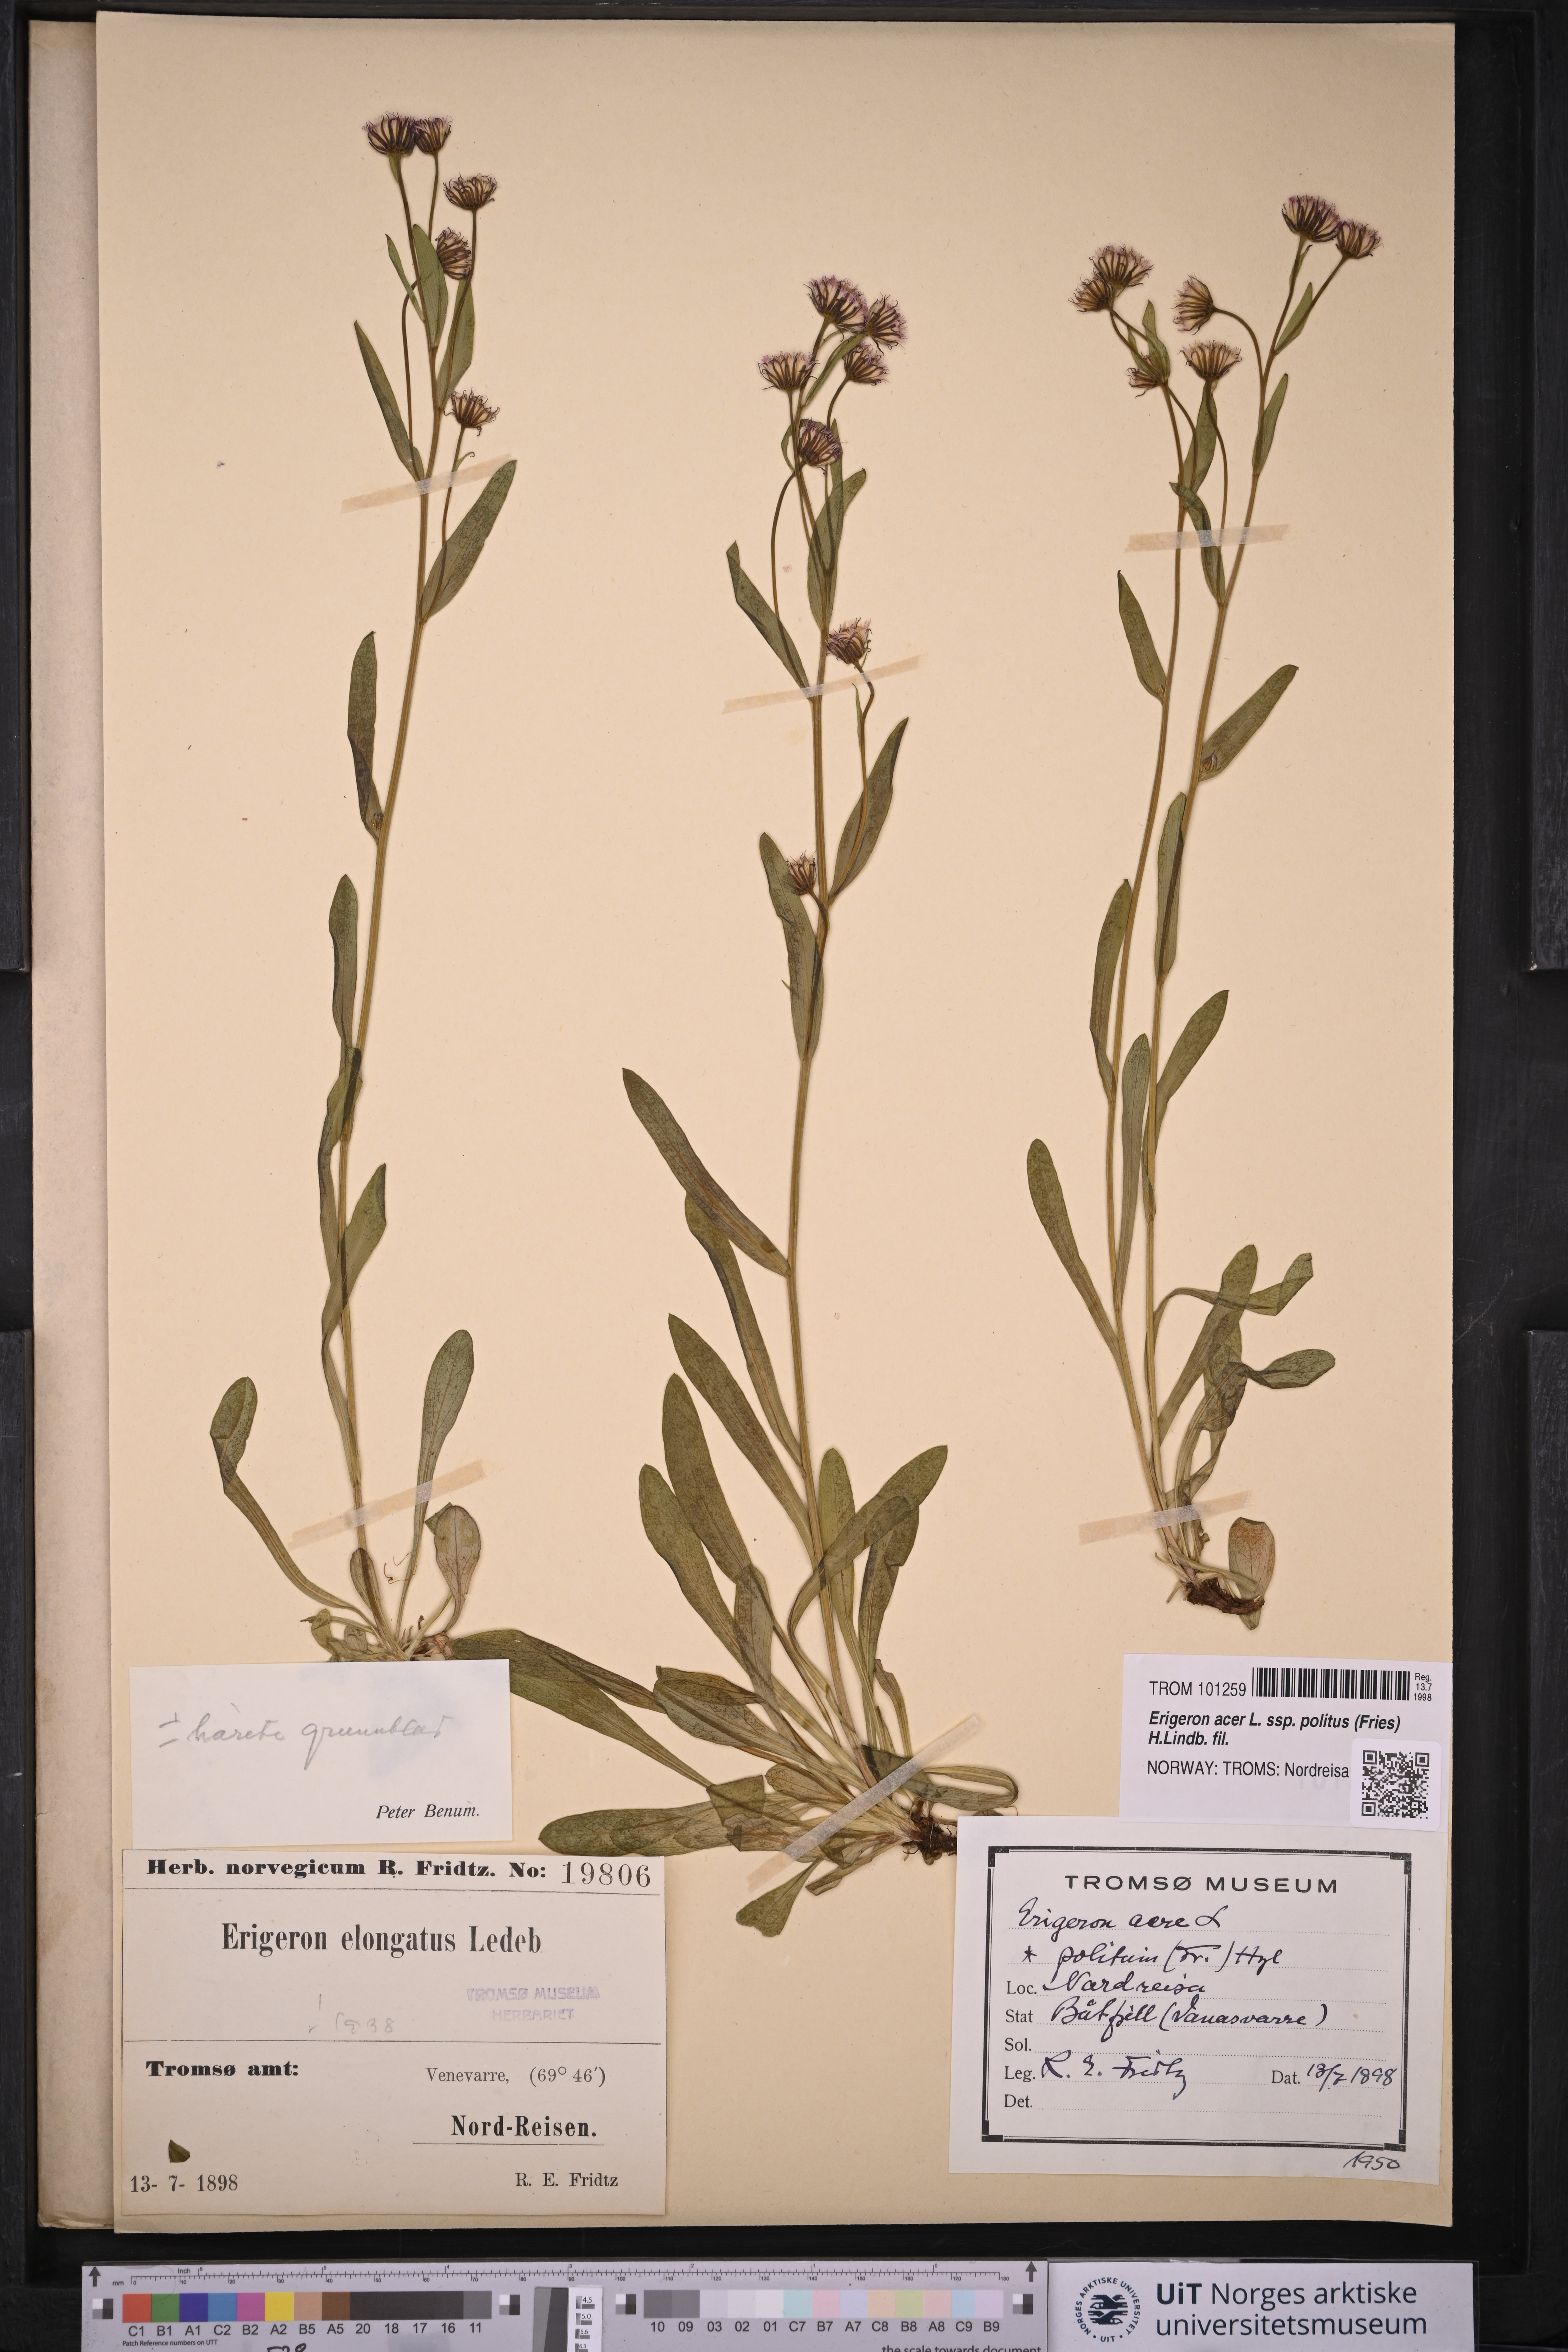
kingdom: Plantae
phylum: Tracheophyta
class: Magnoliopsida
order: Asterales
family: Asteraceae
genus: Erigeron
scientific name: Erigeron politus
